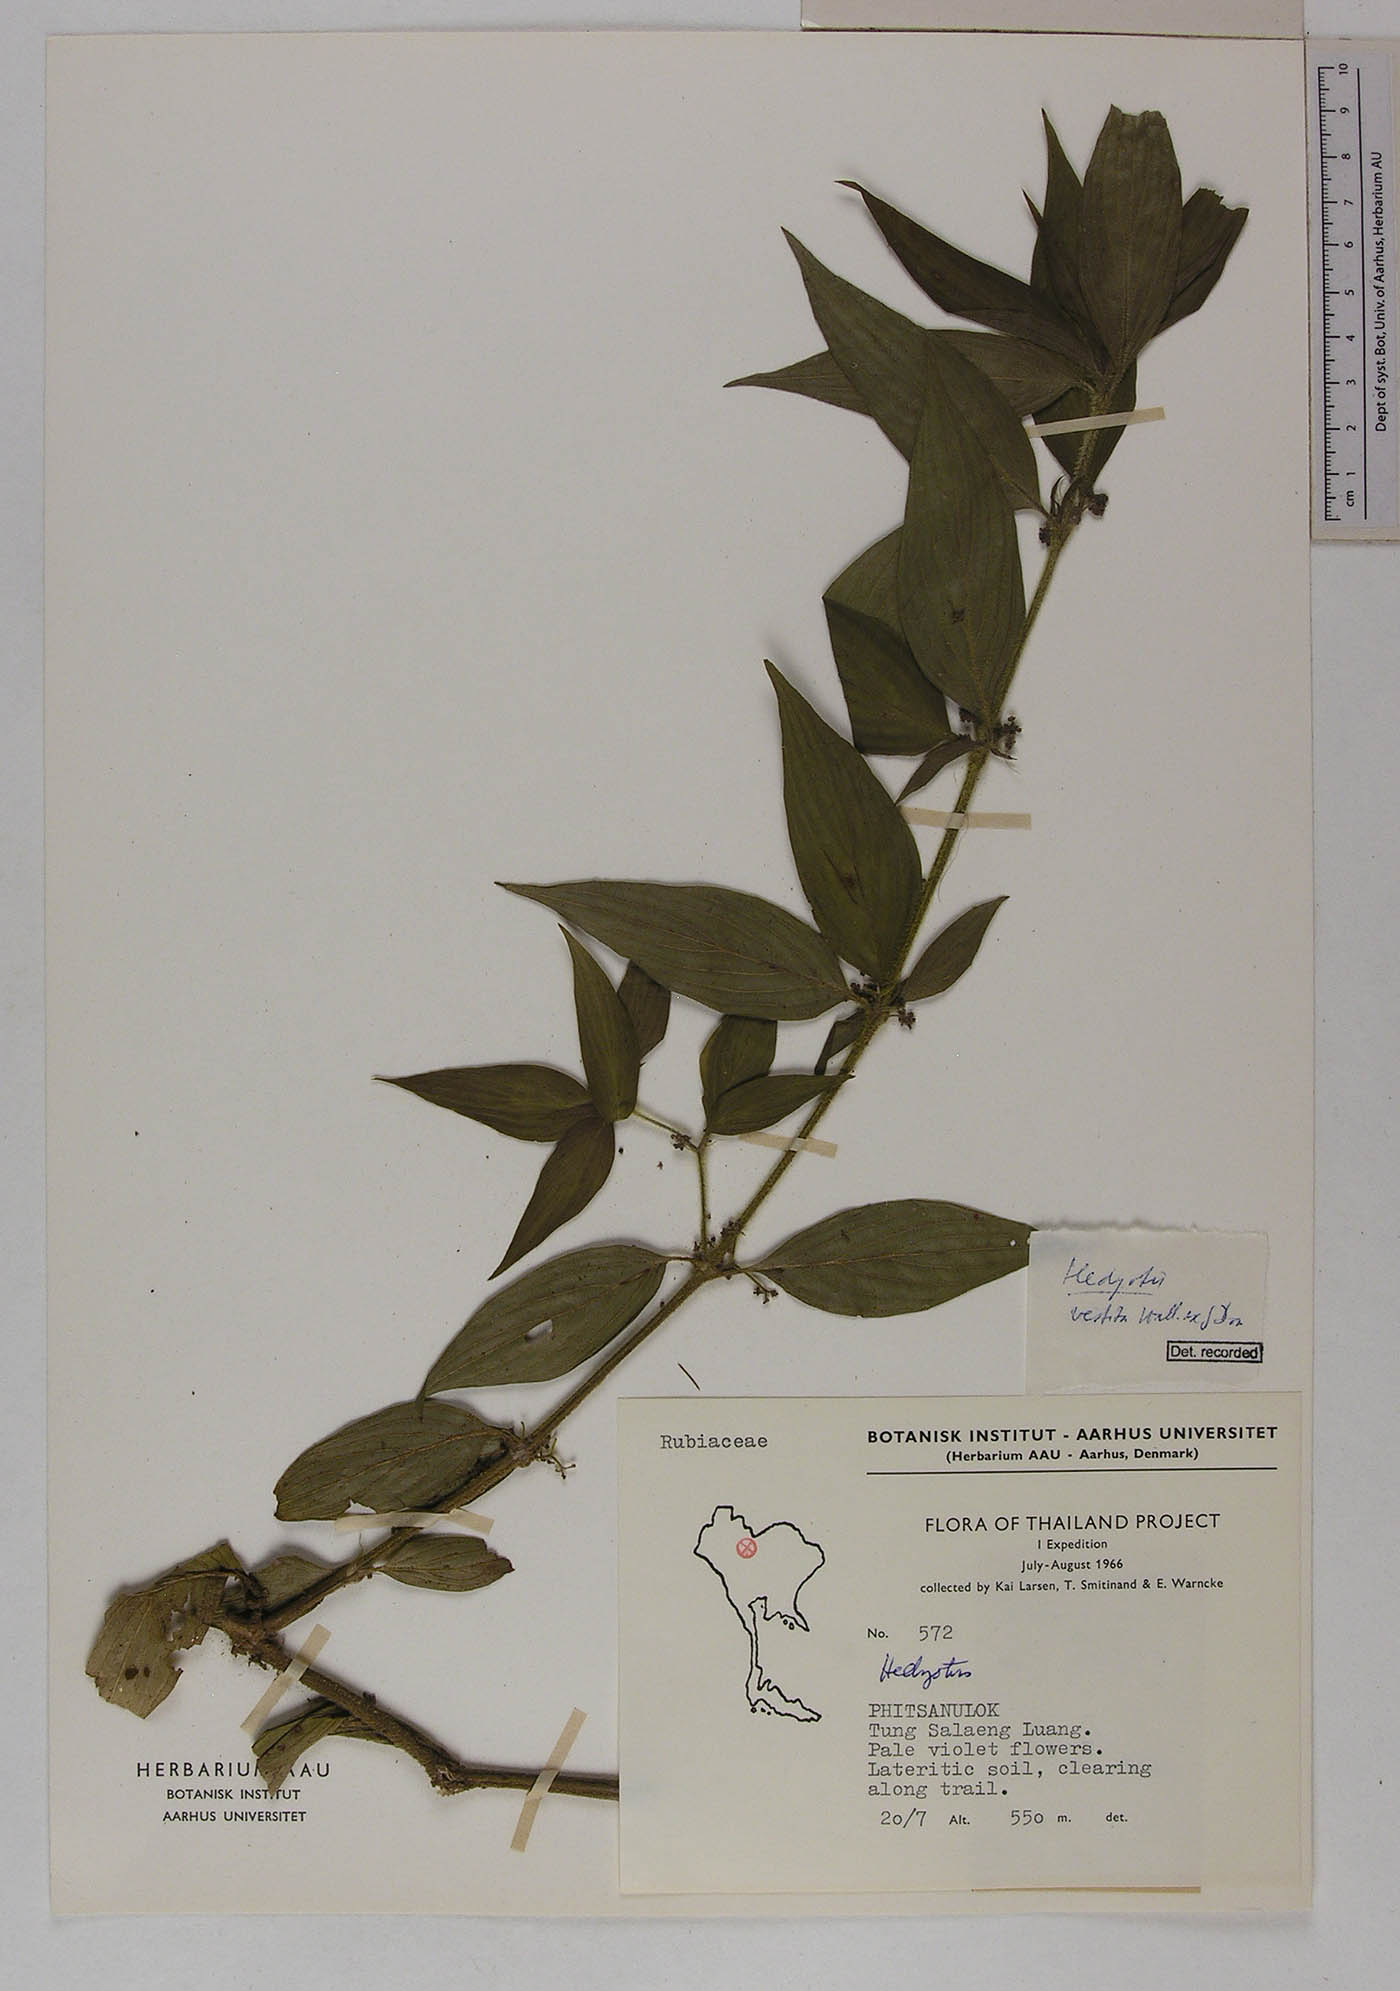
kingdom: Plantae
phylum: Tracheophyta
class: Magnoliopsida
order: Gentianales
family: Rubiaceae
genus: Exallage
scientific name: Exallage cristata
